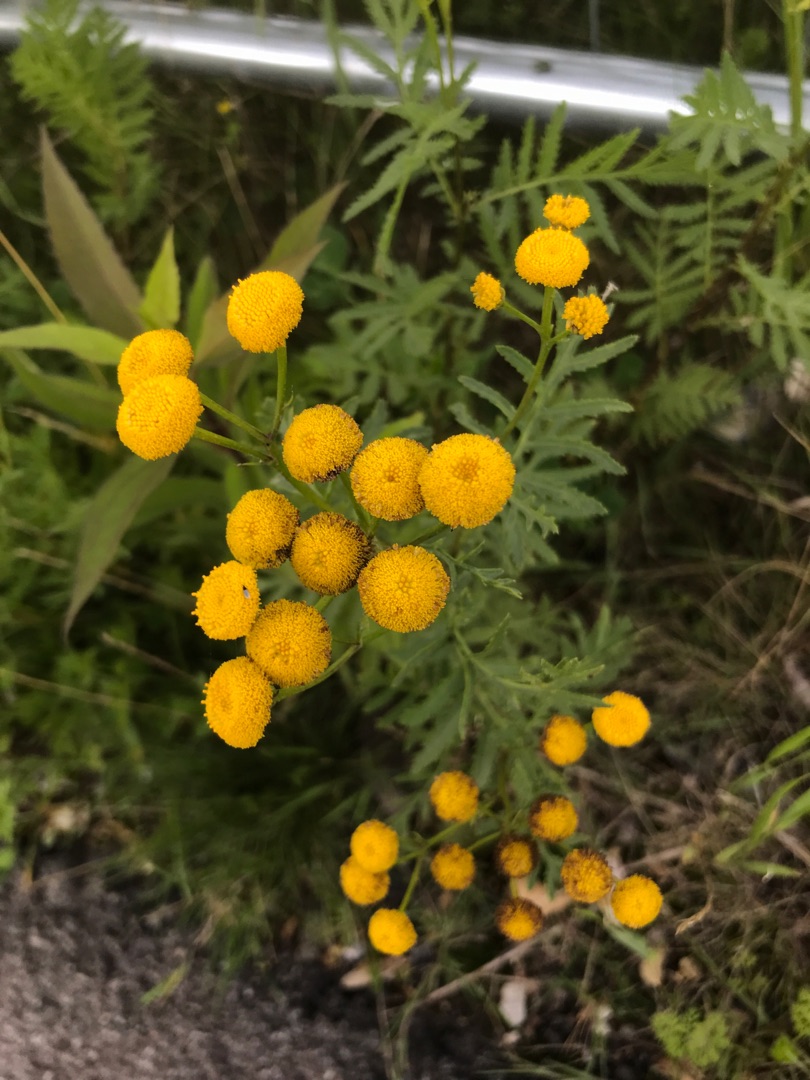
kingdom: Plantae
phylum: Tracheophyta
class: Magnoliopsida
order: Asterales
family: Asteraceae
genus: Tanacetum
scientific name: Tanacetum vulgare
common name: Rejnfan
